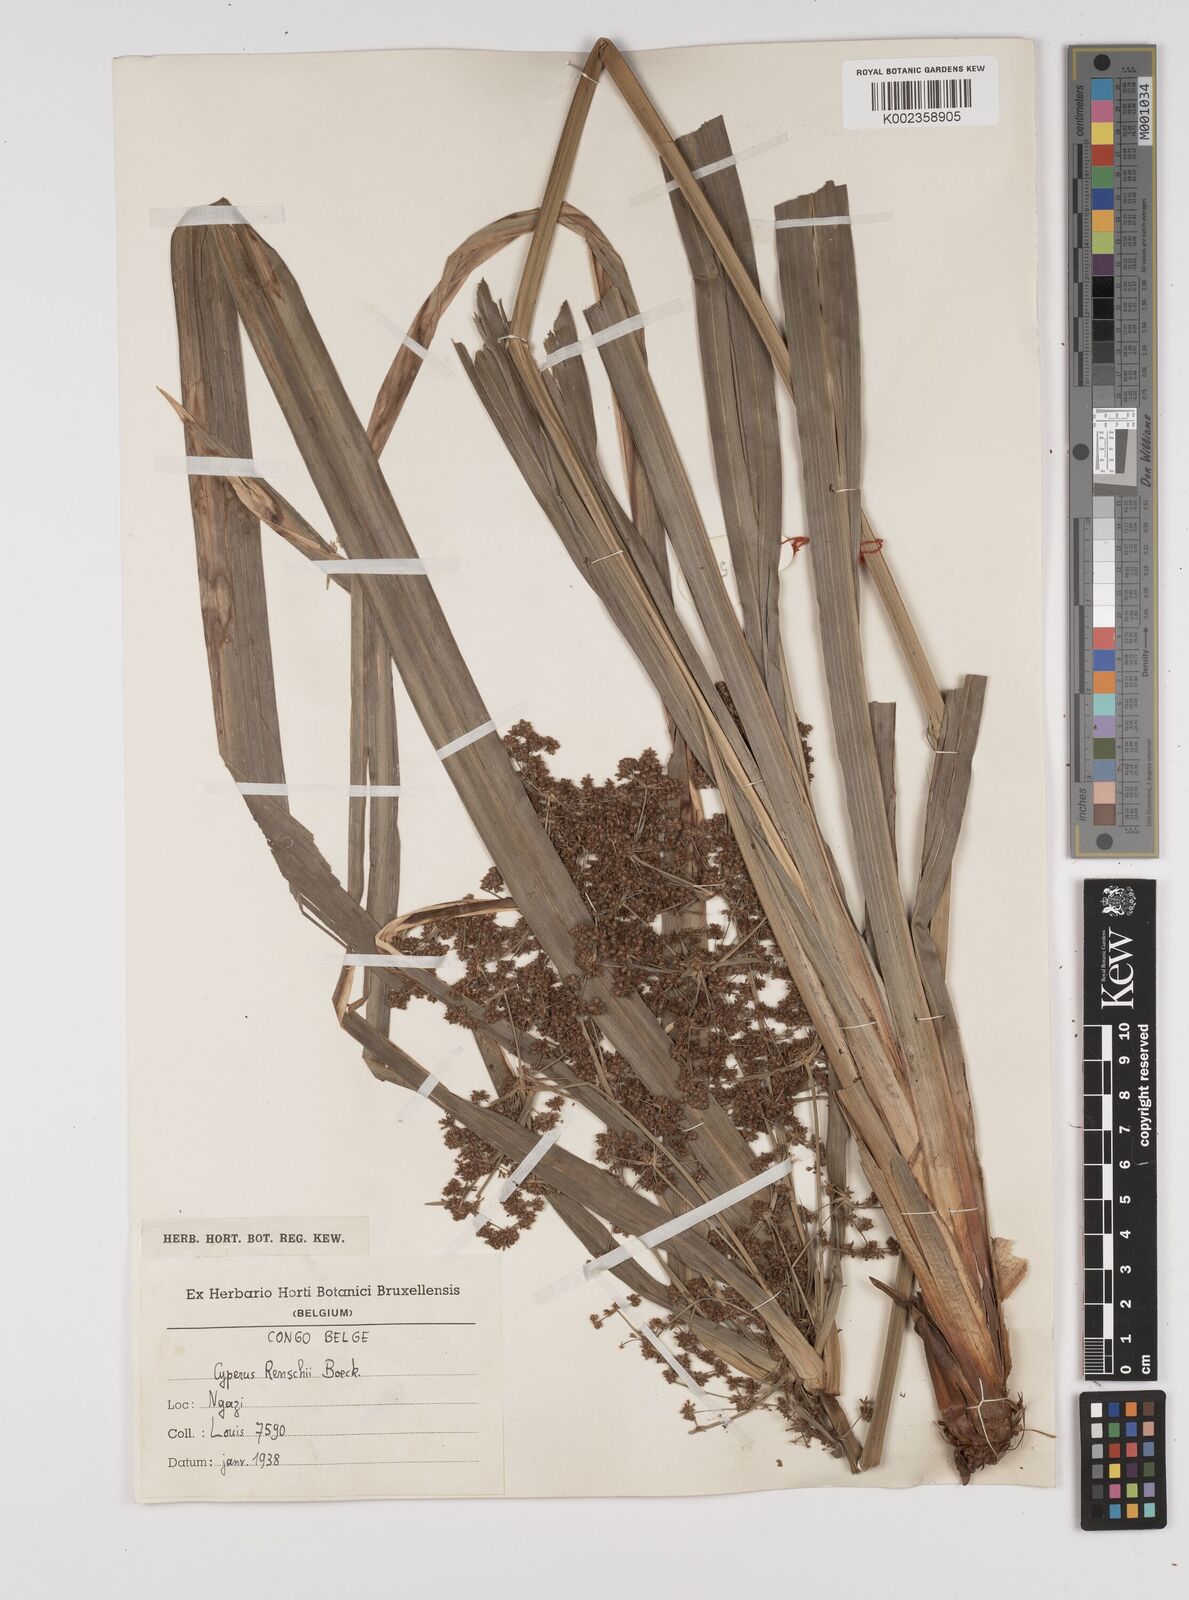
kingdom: Plantae
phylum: Tracheophyta
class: Liliopsida
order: Poales
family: Cyperaceae
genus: Cyperus
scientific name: Cyperus renschii
